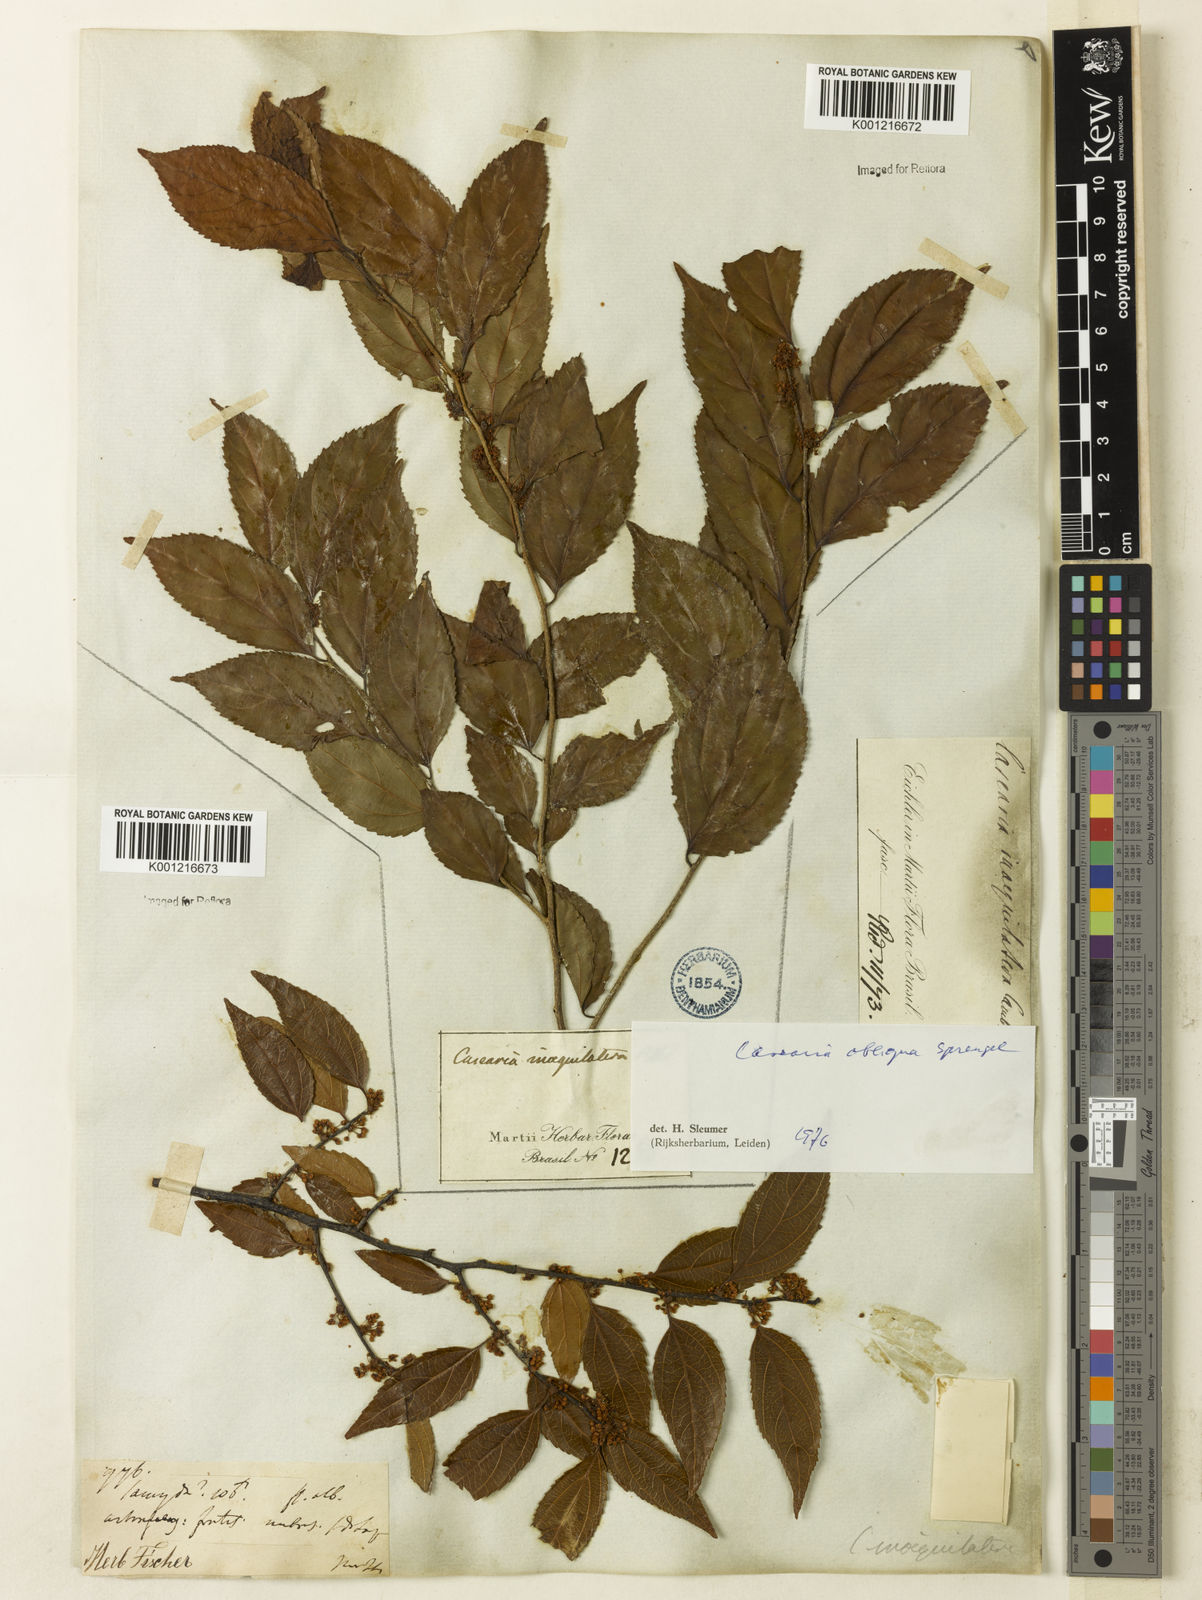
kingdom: Plantae
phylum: Tracheophyta
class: Magnoliopsida
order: Malpighiales
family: Salicaceae
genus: Casearia
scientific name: Casearia obliqua
